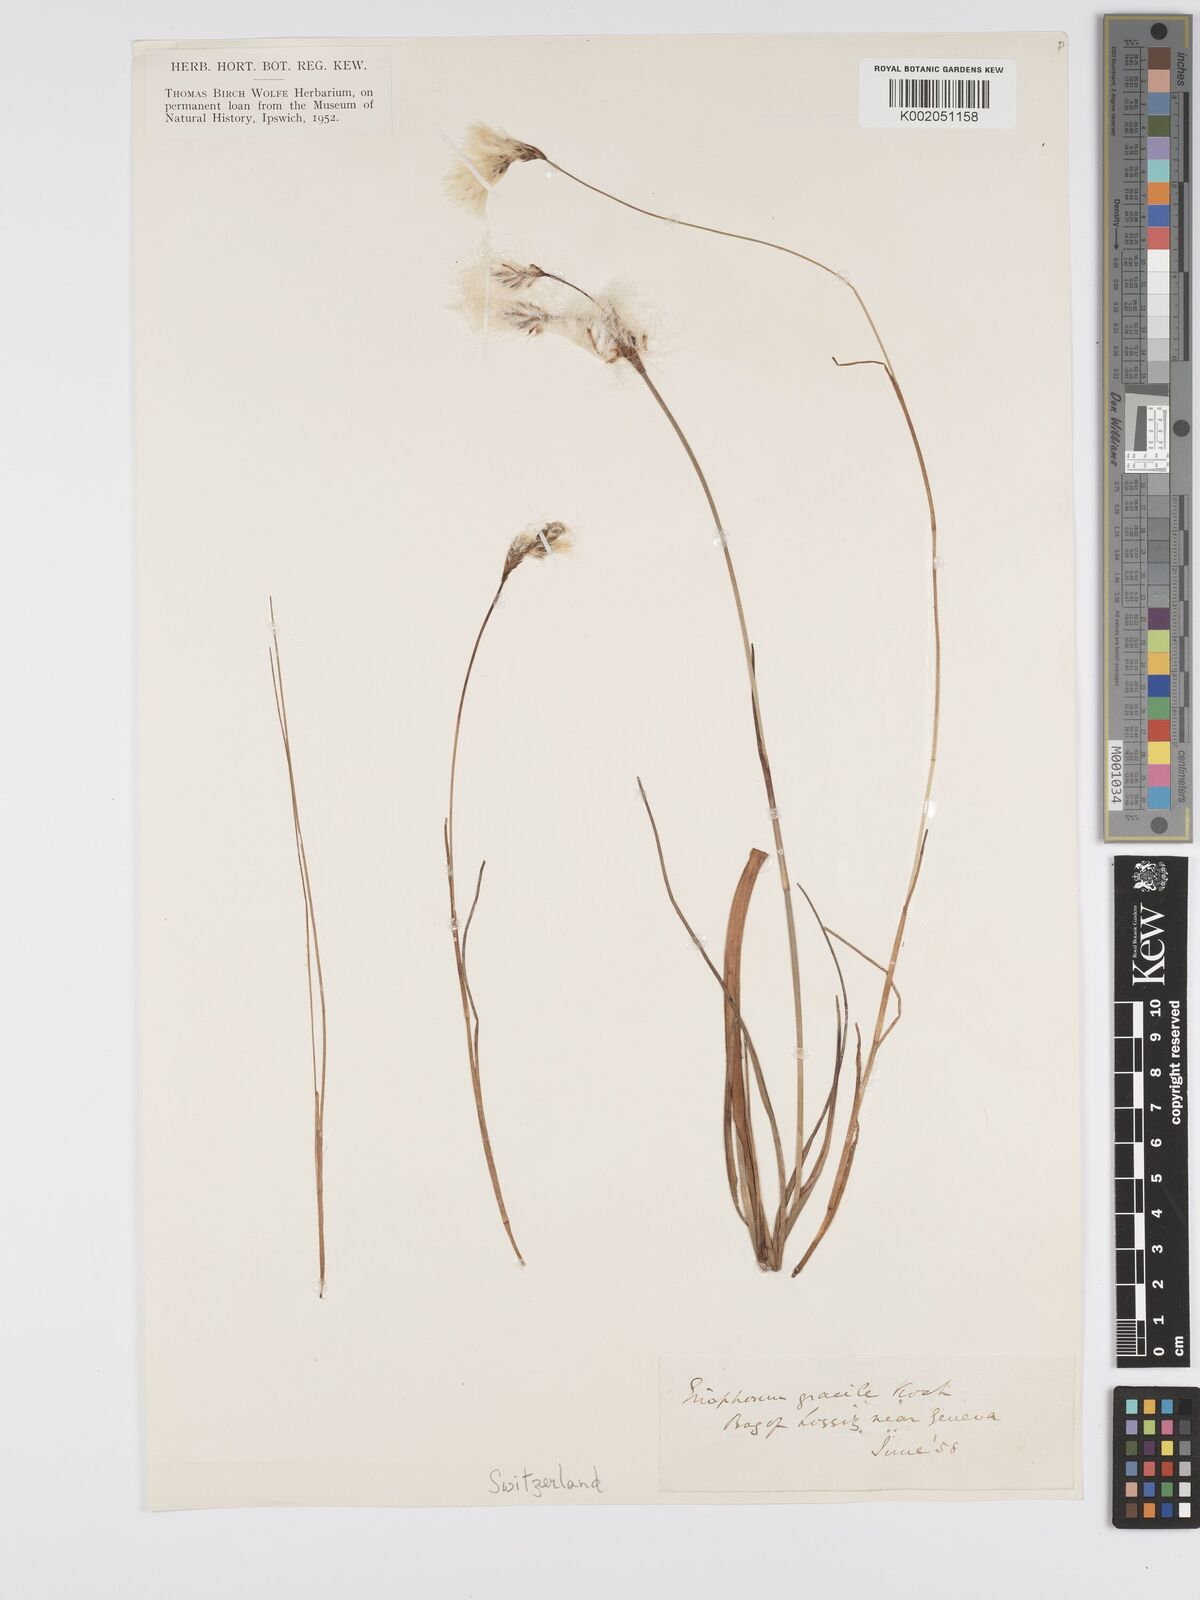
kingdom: Plantae
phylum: Tracheophyta
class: Liliopsida
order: Poales
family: Cyperaceae
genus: Eriophorum
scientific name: Eriophorum gracile
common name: Slender cottongrass
